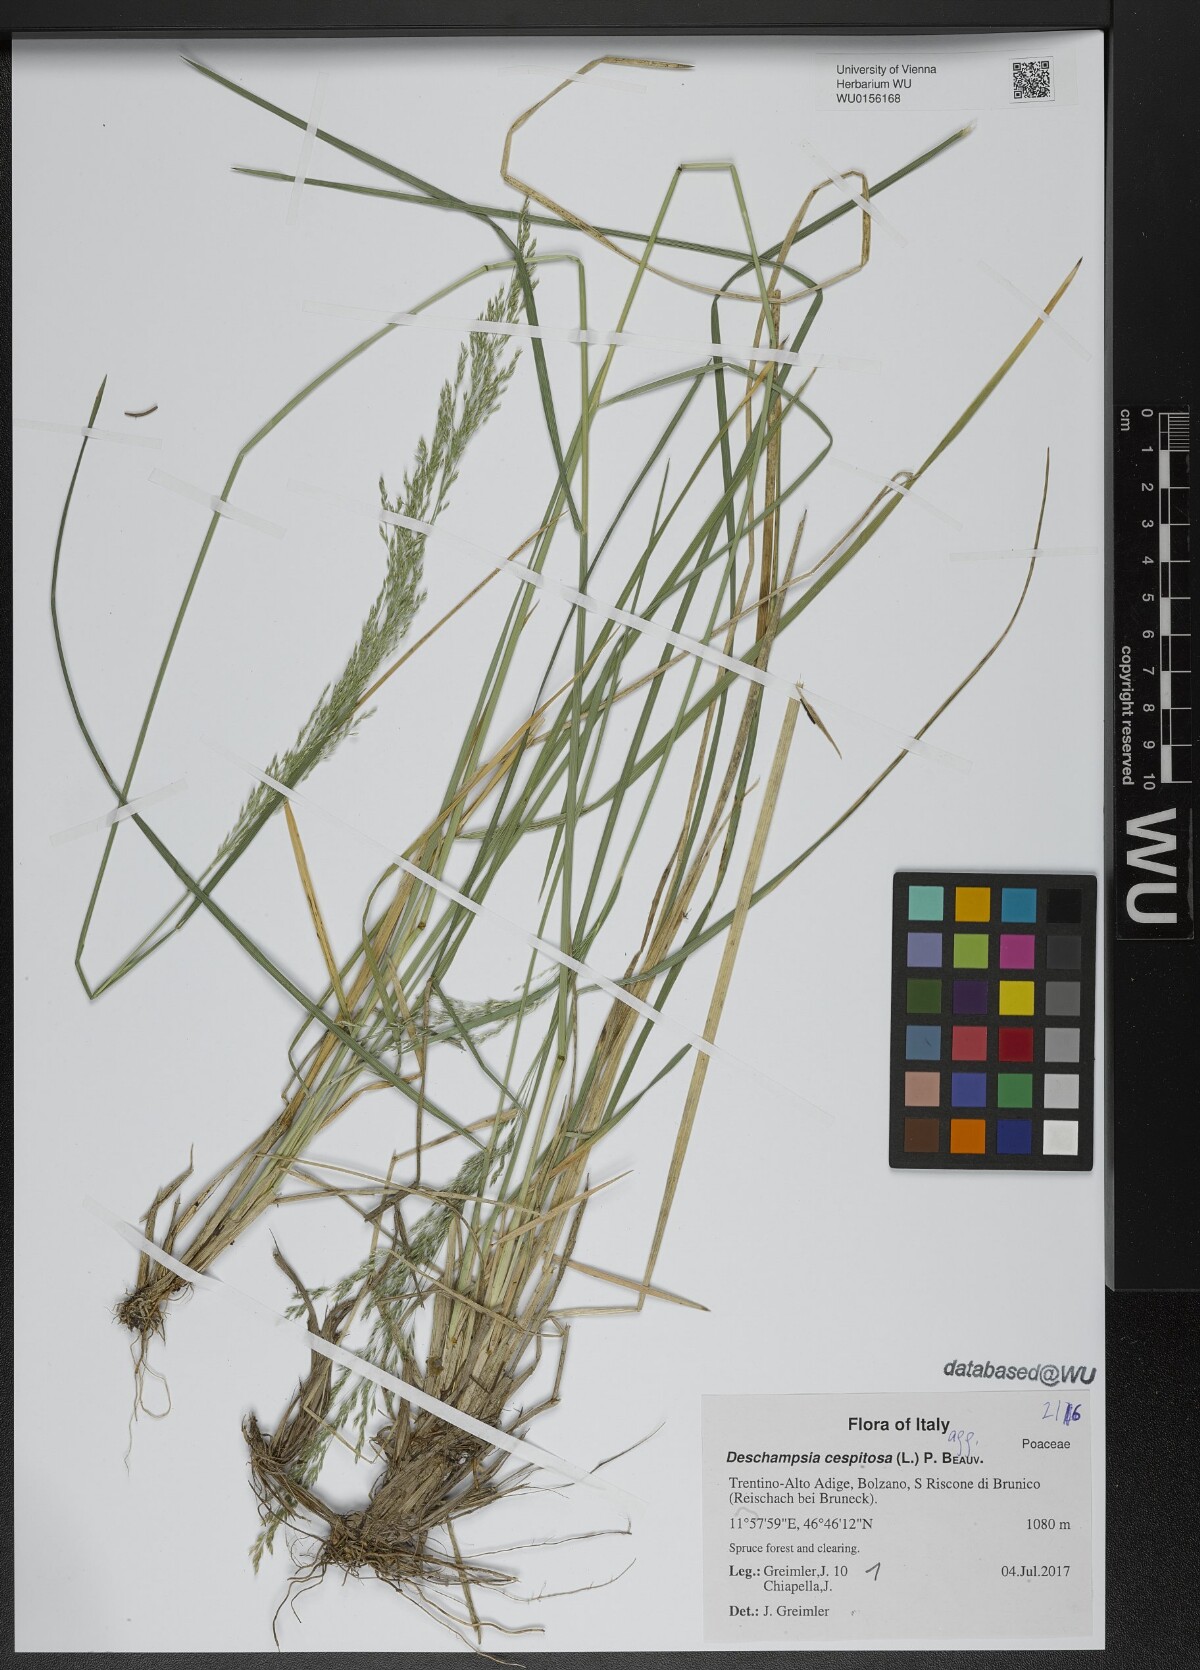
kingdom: Plantae
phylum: Tracheophyta
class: Liliopsida
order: Poales
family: Poaceae
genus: Deschampsia
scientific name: Deschampsia cespitosa
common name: Tufted hair-grass
